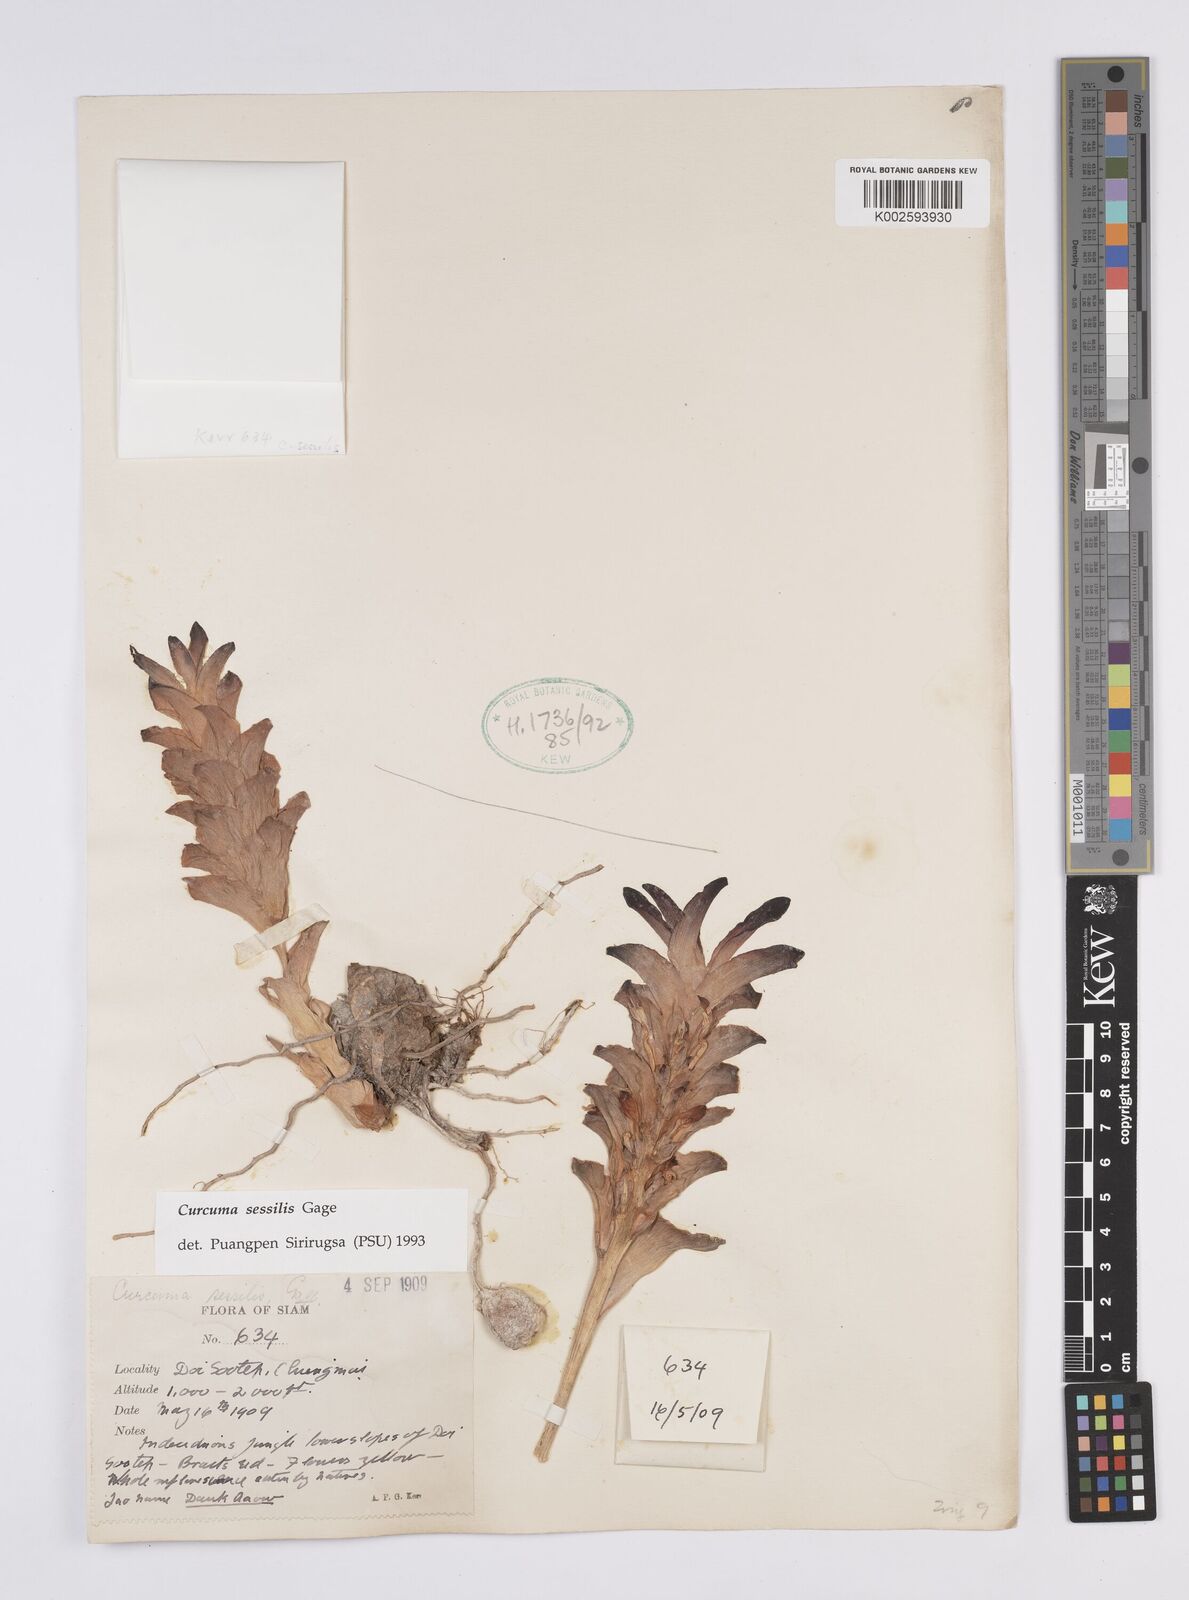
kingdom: Plantae
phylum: Tracheophyta
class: Liliopsida
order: Zingiberales
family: Zingiberaceae
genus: Curcuma
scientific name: Curcuma sessilis
